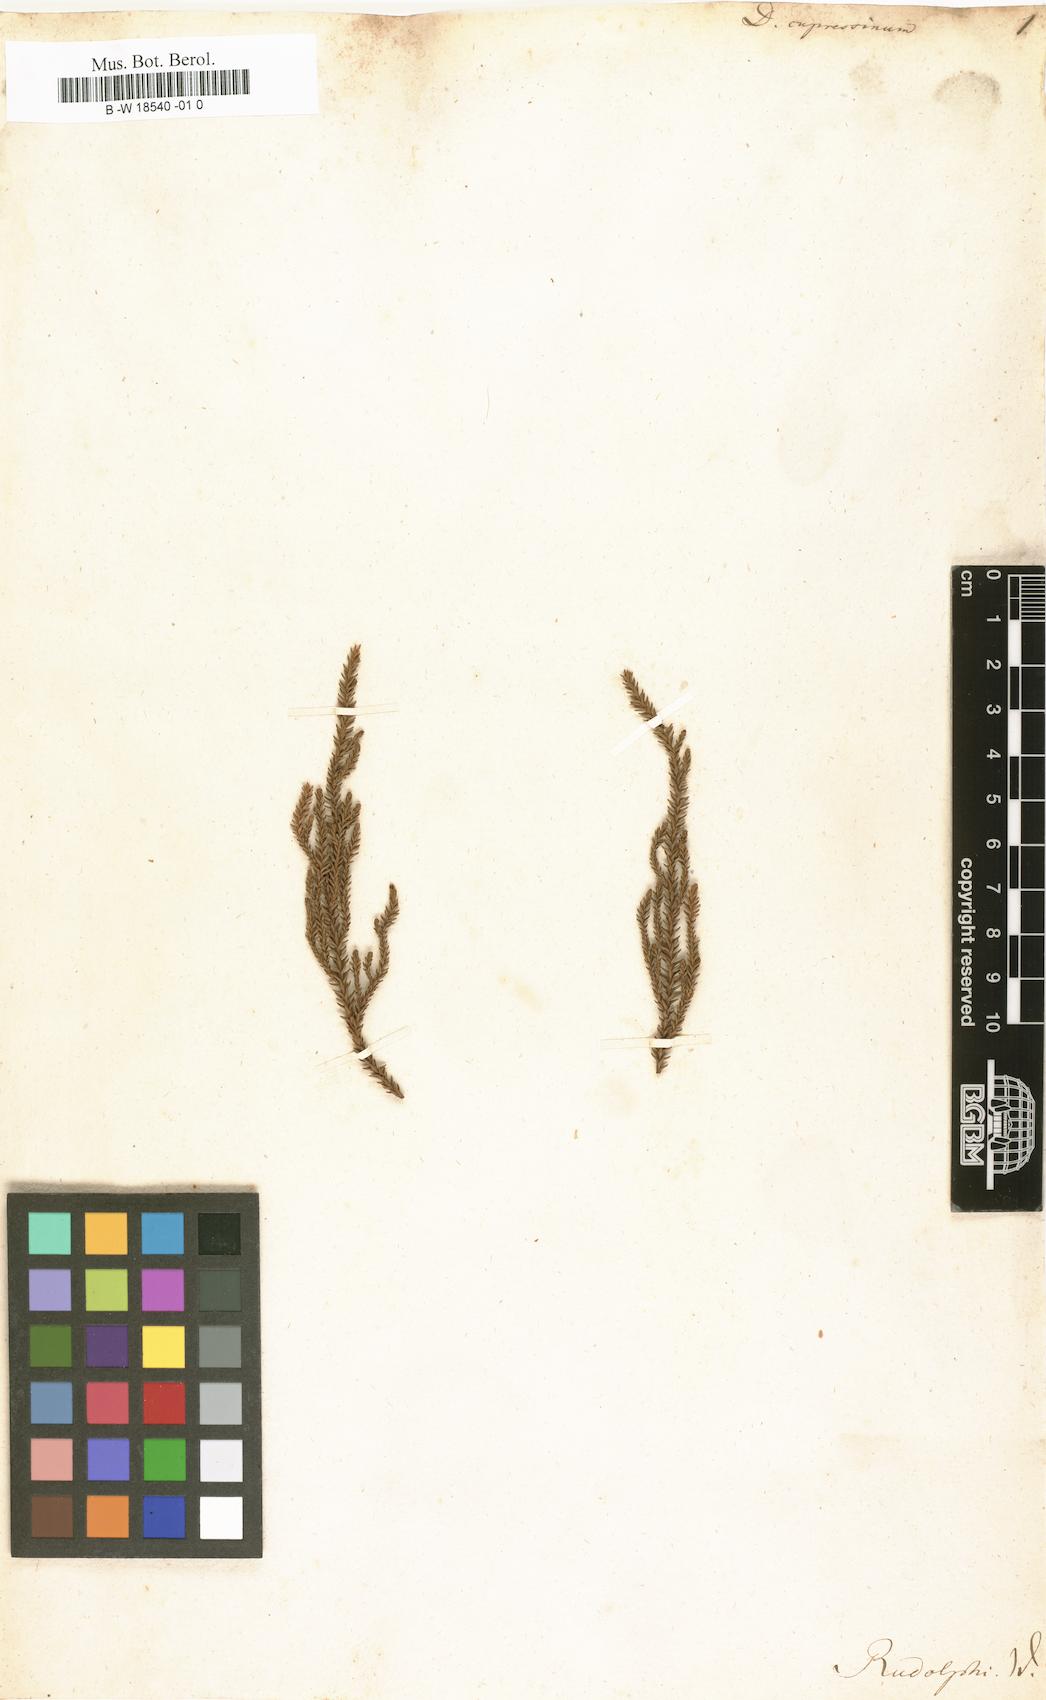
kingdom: Plantae
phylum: Tracheophyta
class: Pinopsida
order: Pinales
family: Podocarpaceae
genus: Dacrydium
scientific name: Dacrydium cupressinum
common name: Red pine
